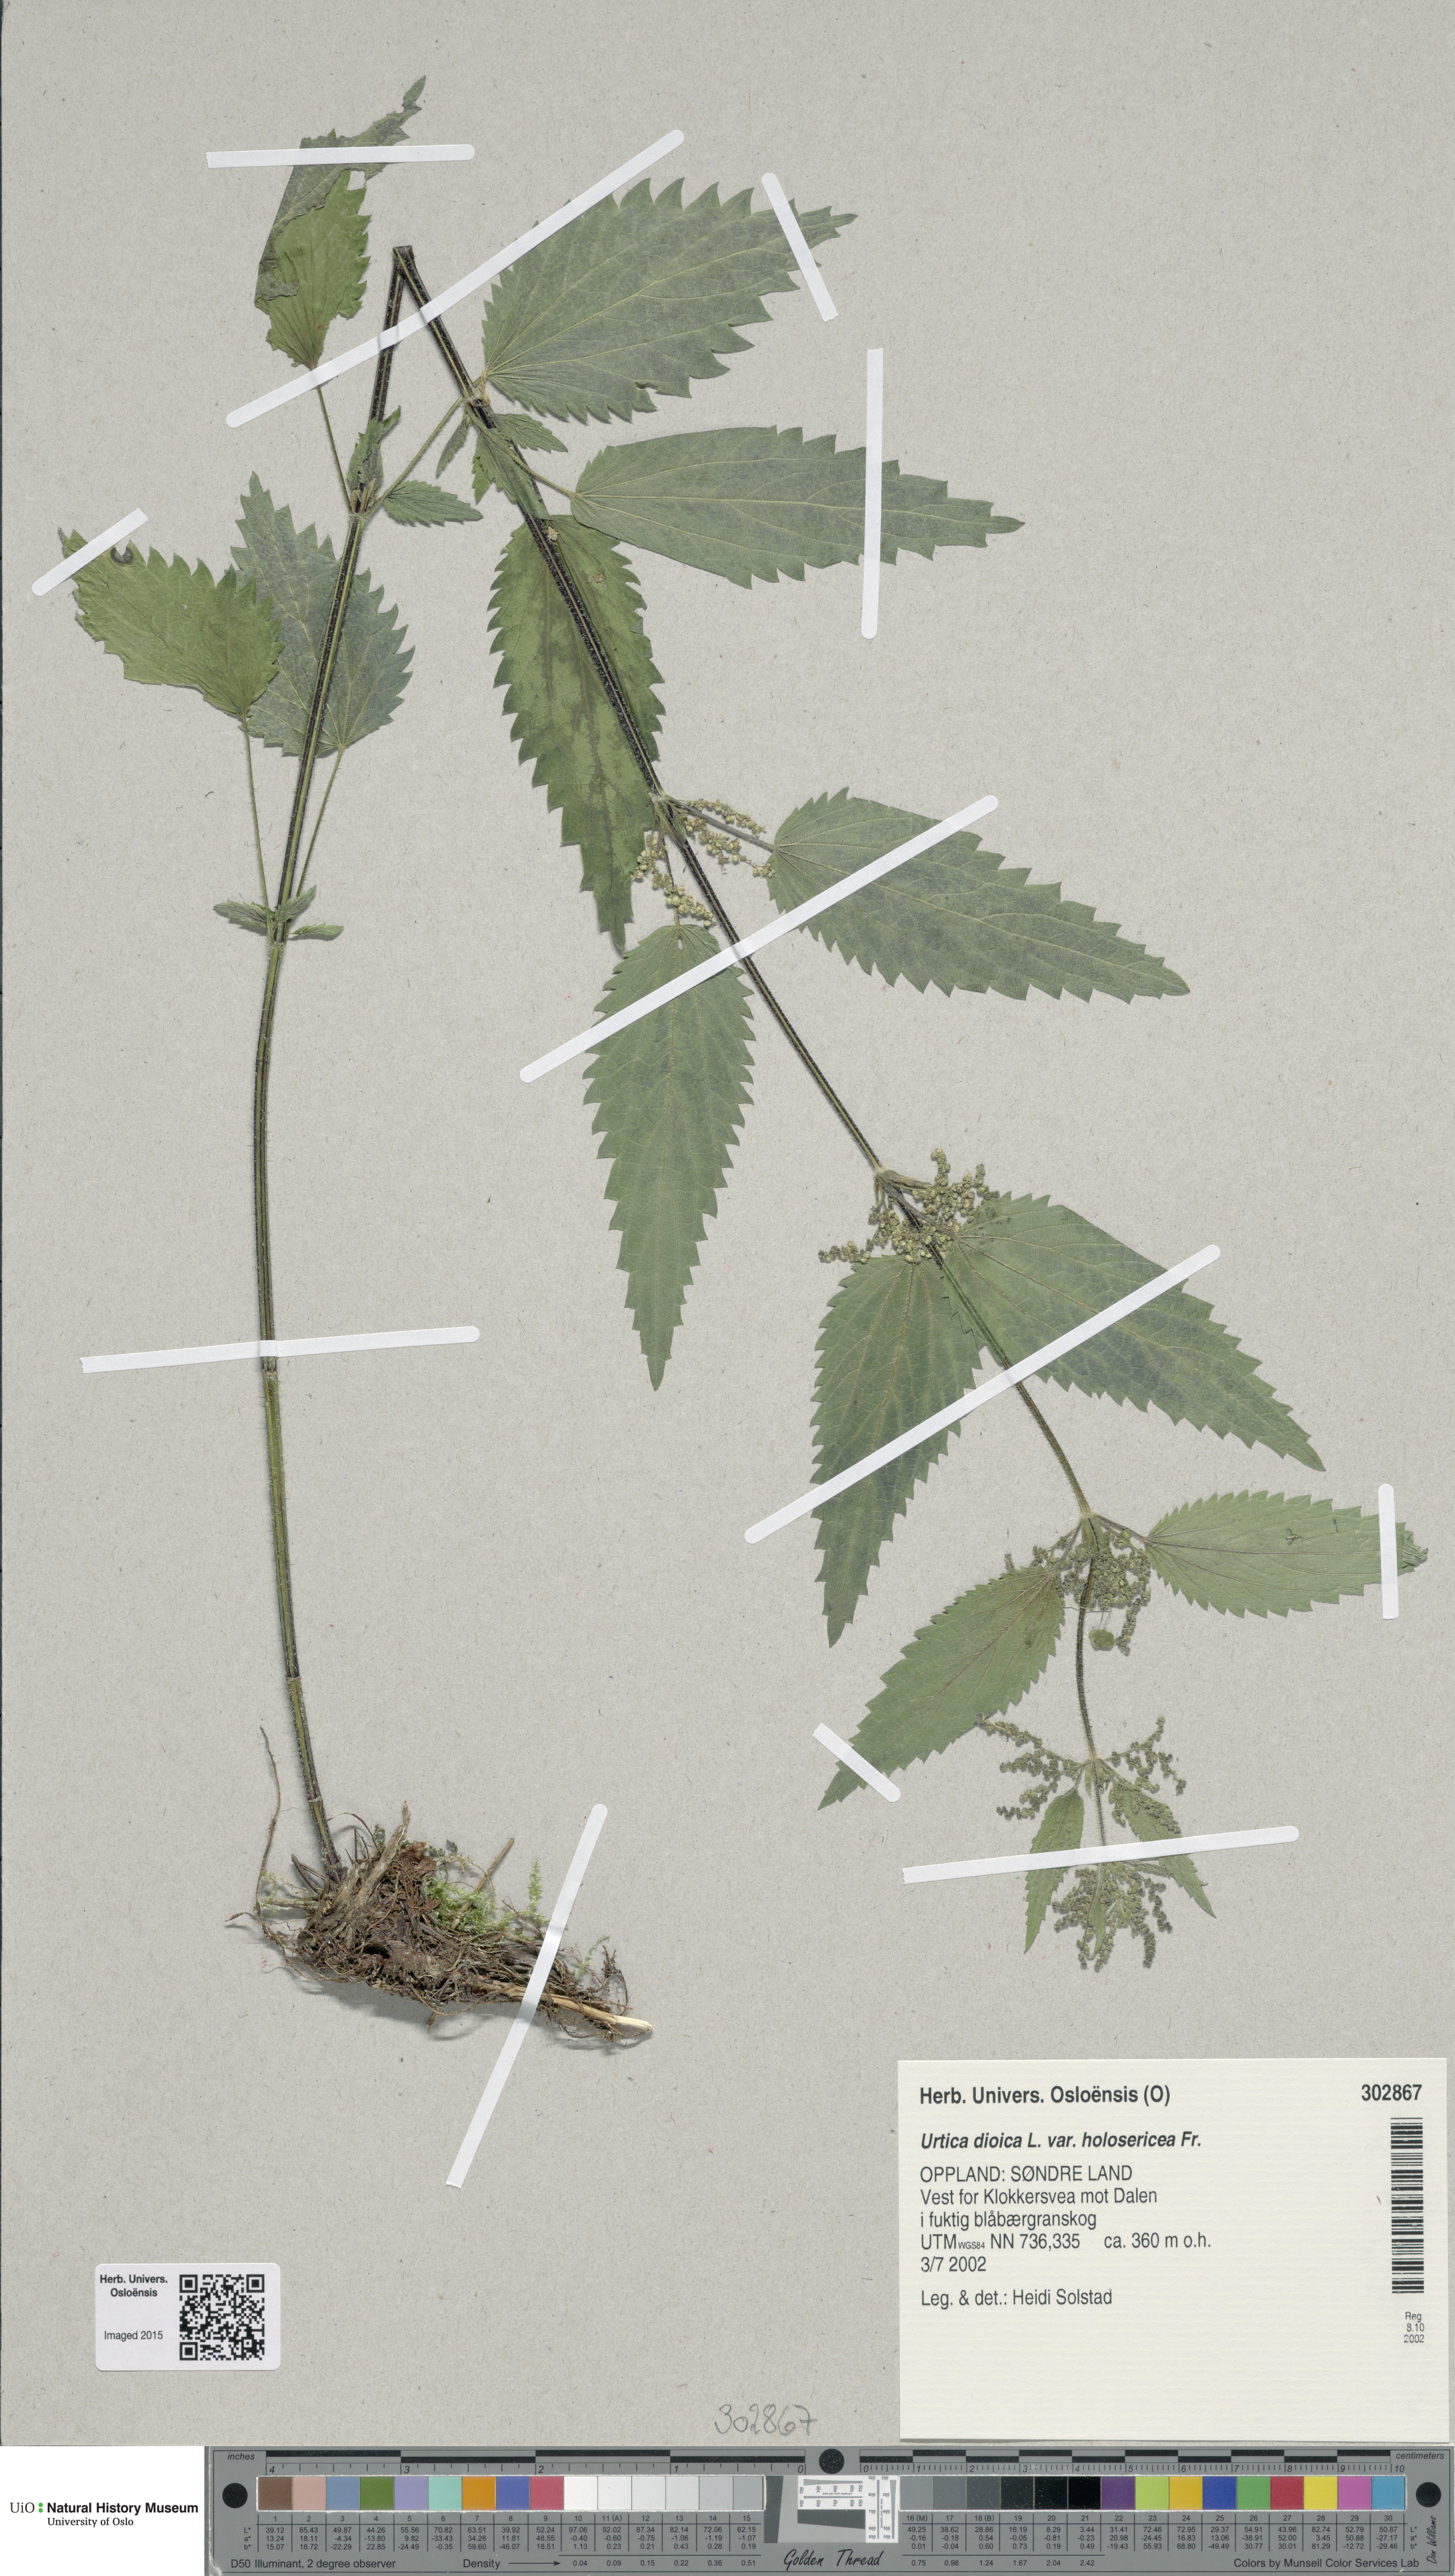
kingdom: Plantae
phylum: Tracheophyta
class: Magnoliopsida
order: Rosales
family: Urticaceae
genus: Urtica
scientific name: Urtica dioica
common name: Common nettle
